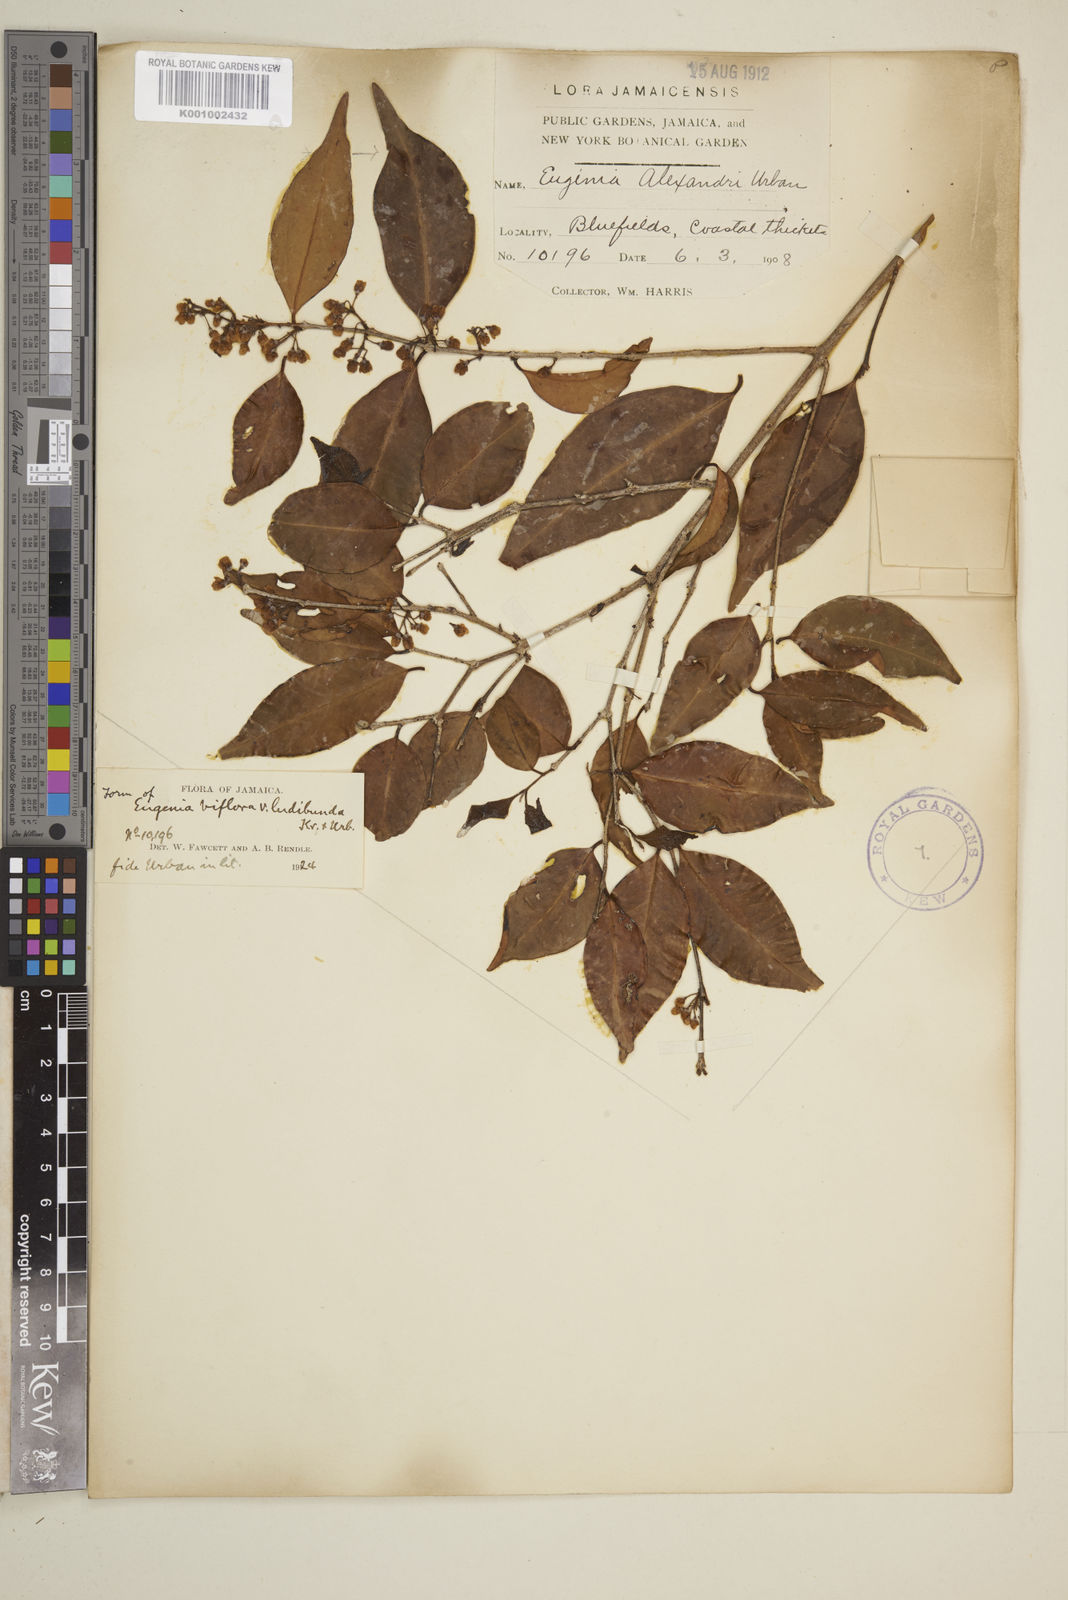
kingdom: Plantae
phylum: Tracheophyta
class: Magnoliopsida
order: Myrtales
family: Myrtaceae
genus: Eugenia
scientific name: Eugenia biflora
